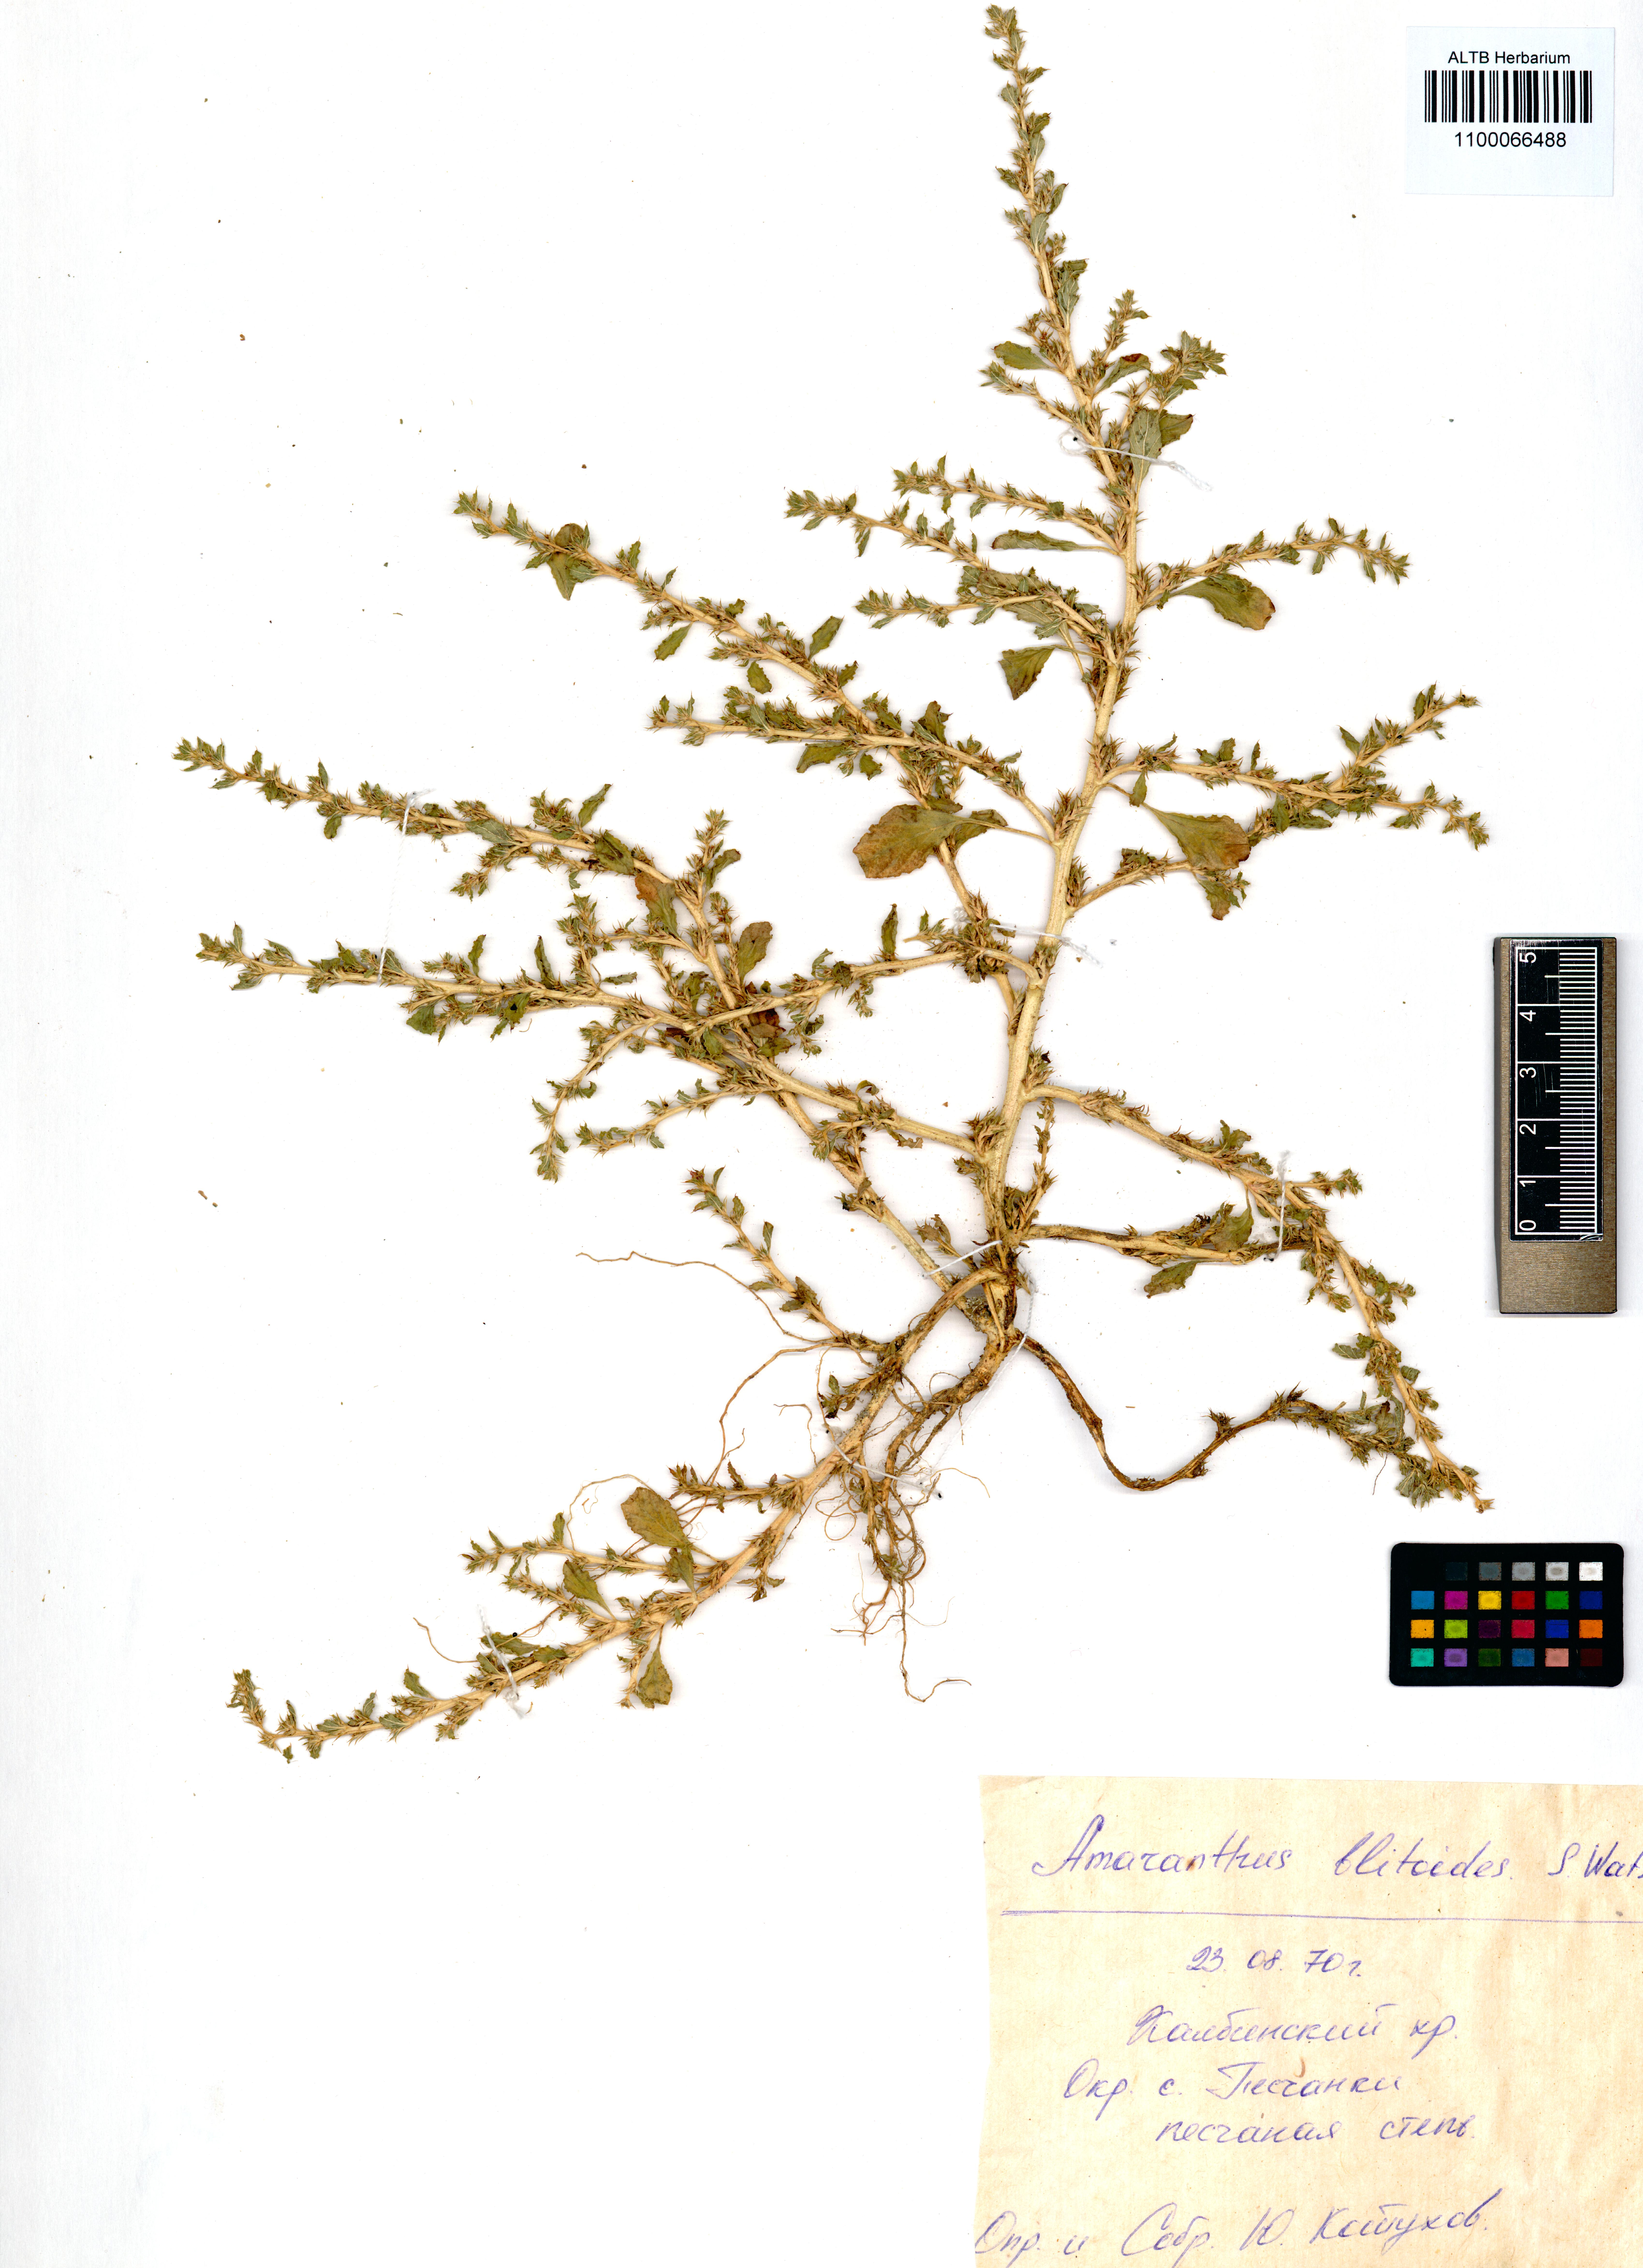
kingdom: Plantae
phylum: Tracheophyta
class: Magnoliopsida
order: Caryophyllales
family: Amaranthaceae
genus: Amaranthus
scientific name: Amaranthus blitoides
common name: Prostrate pigweed
